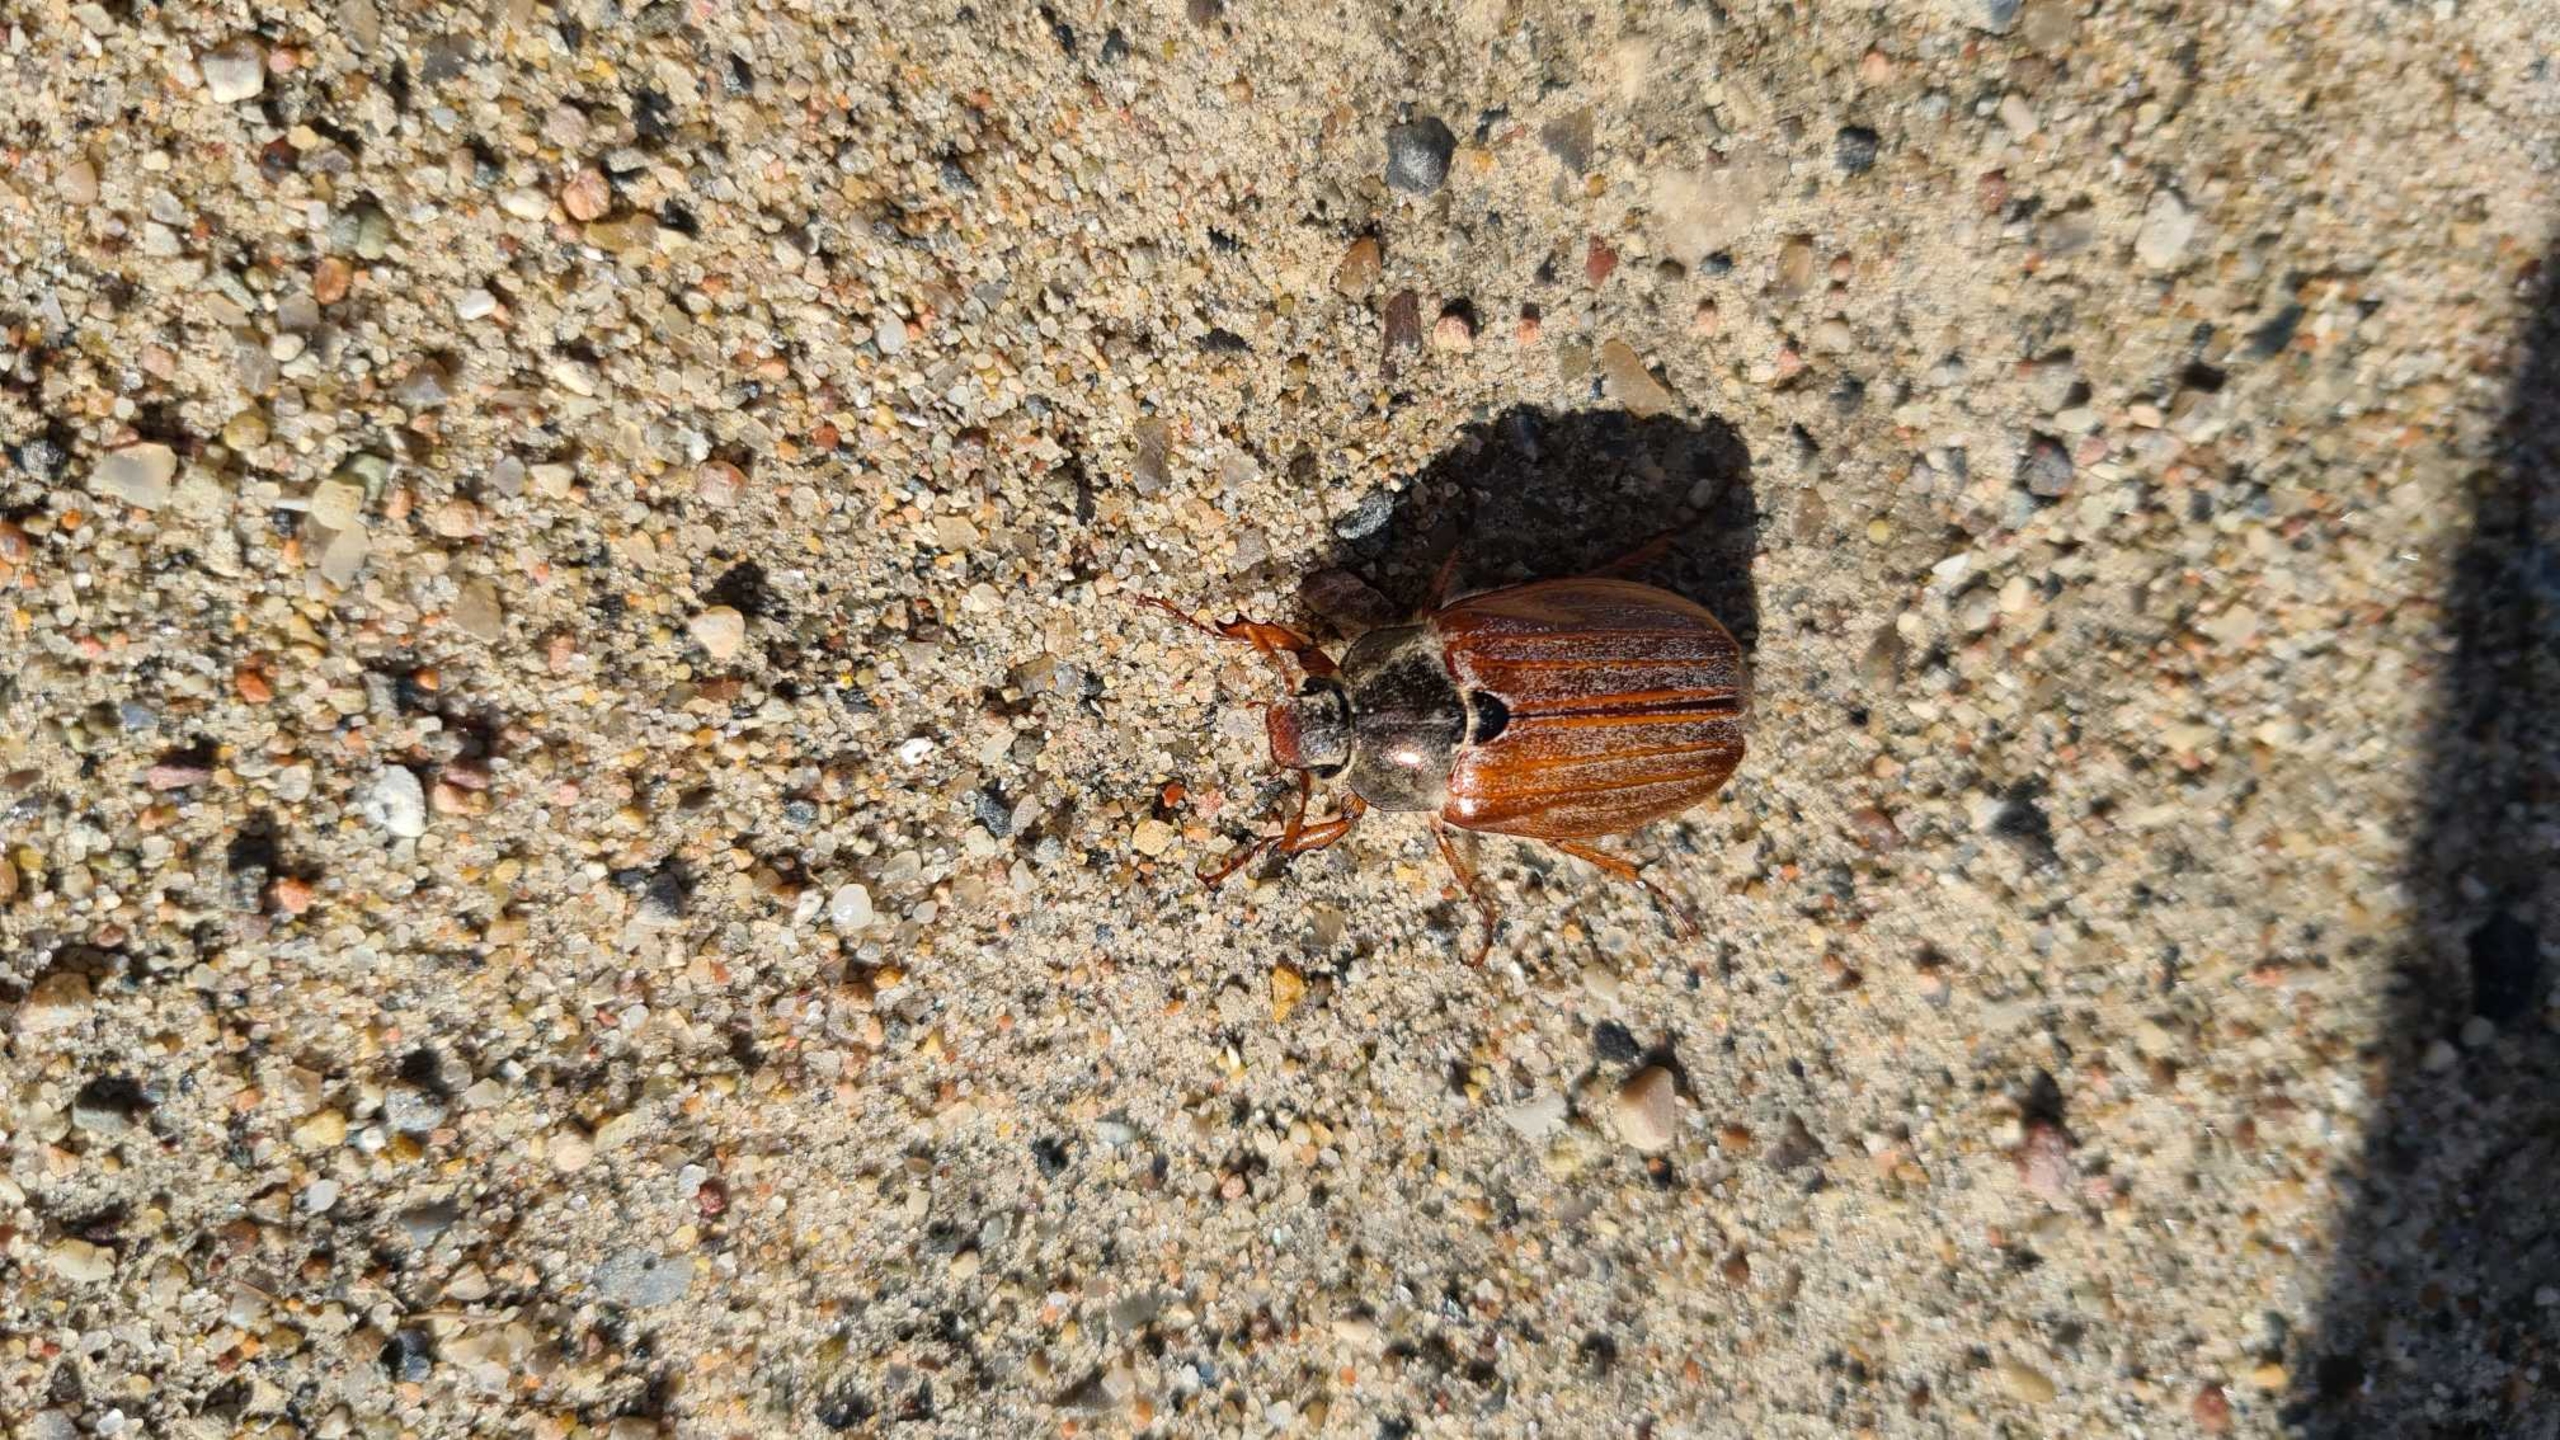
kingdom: Animalia
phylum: Arthropoda
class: Insecta
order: Coleoptera
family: Scarabaeidae
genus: Melolontha
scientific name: Melolontha melolontha
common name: Almindelig oldenborre
